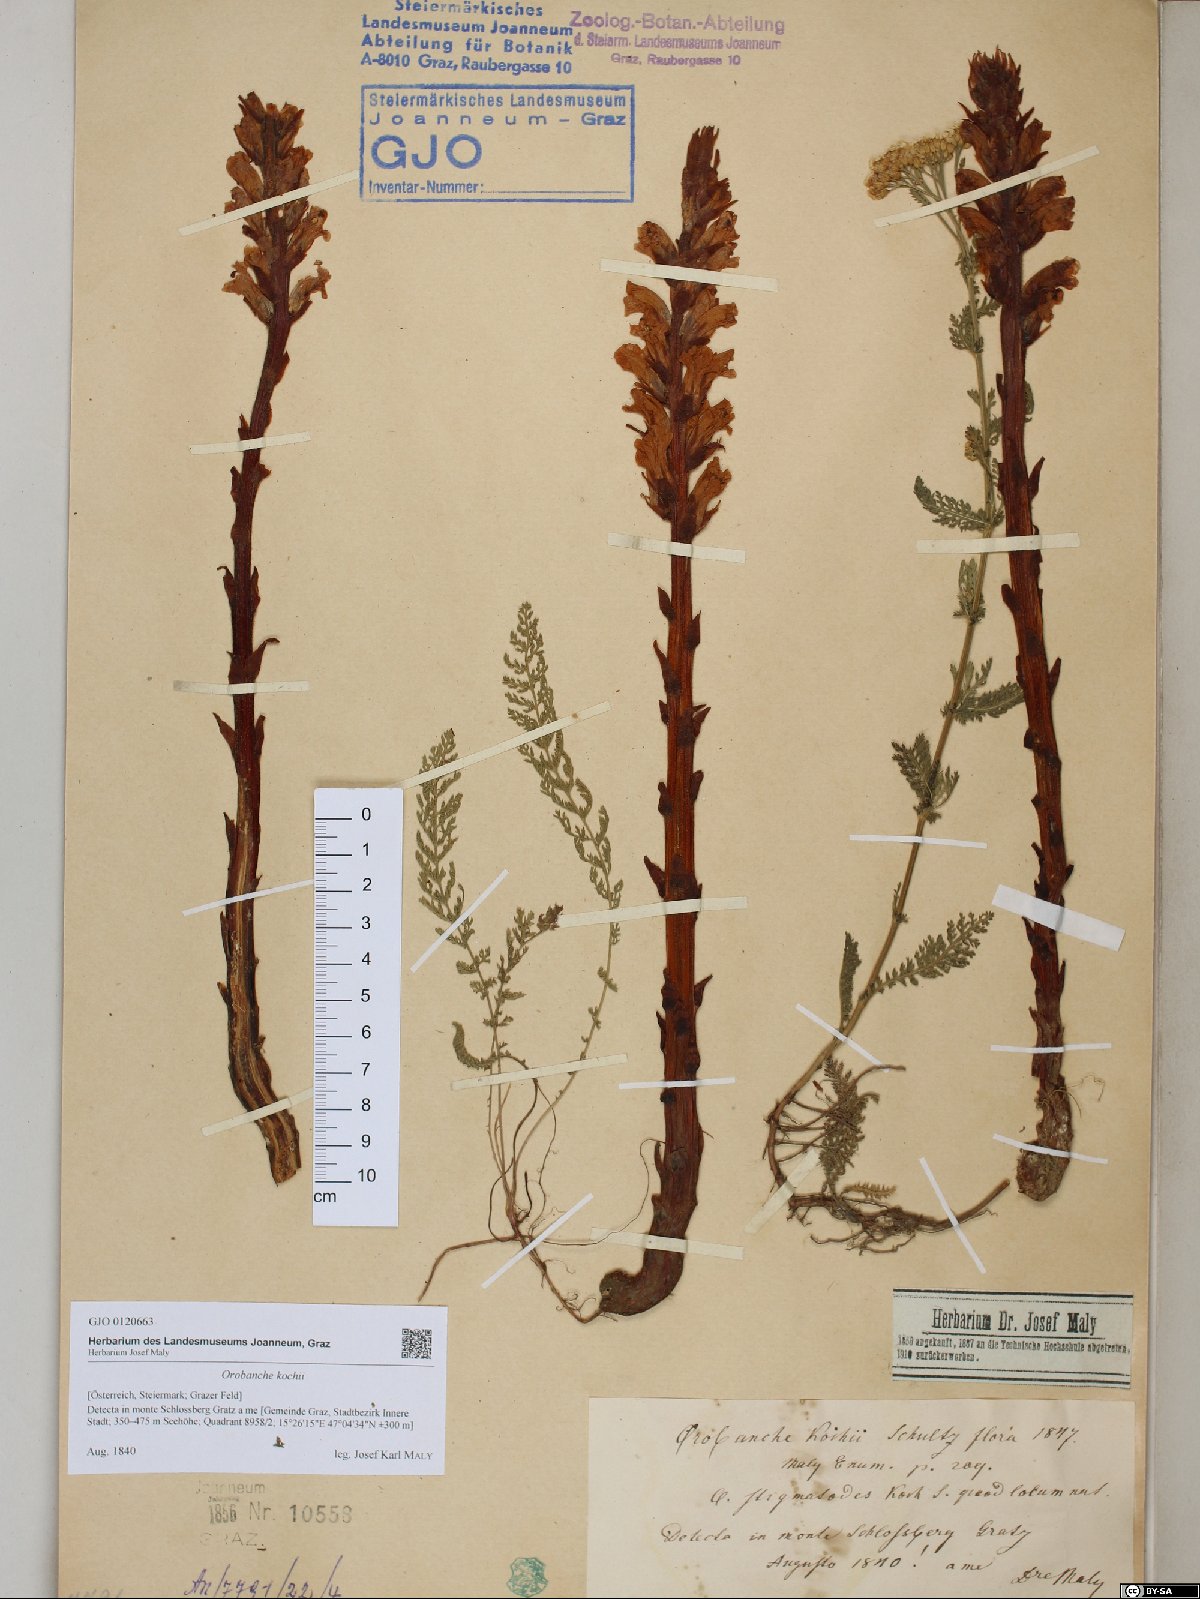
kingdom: Plantae
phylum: Tracheophyta
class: Magnoliopsida
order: Lamiales
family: Orobanchaceae
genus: Orobanche
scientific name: Orobanche centaurina
